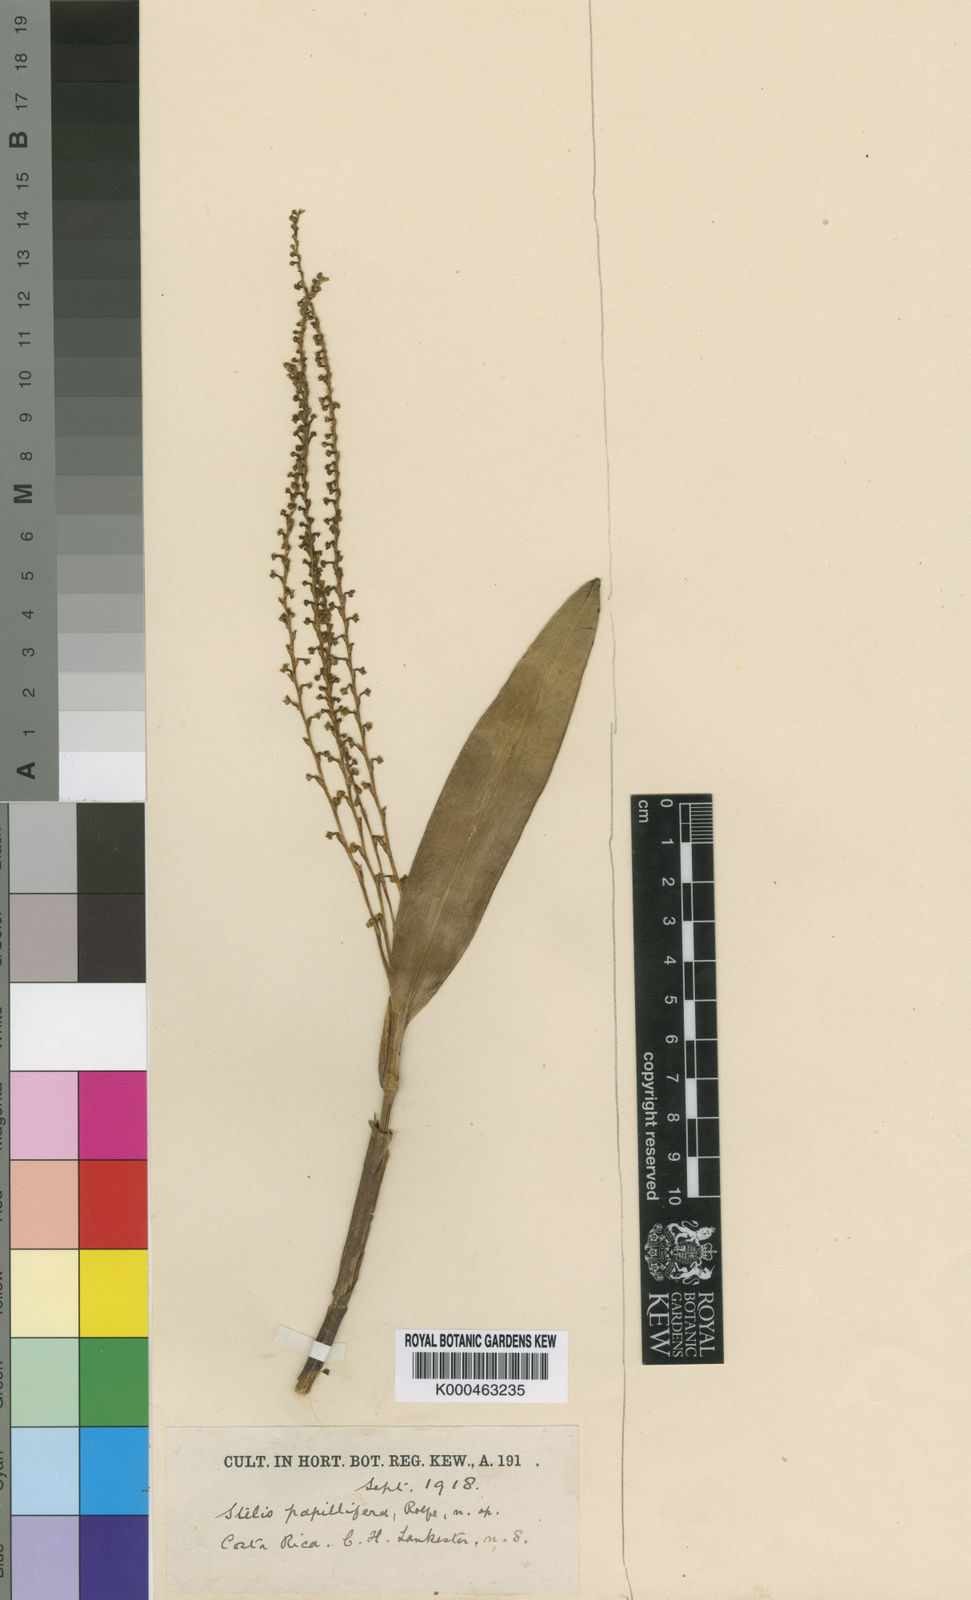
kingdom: Plantae
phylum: Tracheophyta
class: Liliopsida
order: Asparagales
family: Orchidaceae
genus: Stelis
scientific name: Stelis papillifera
